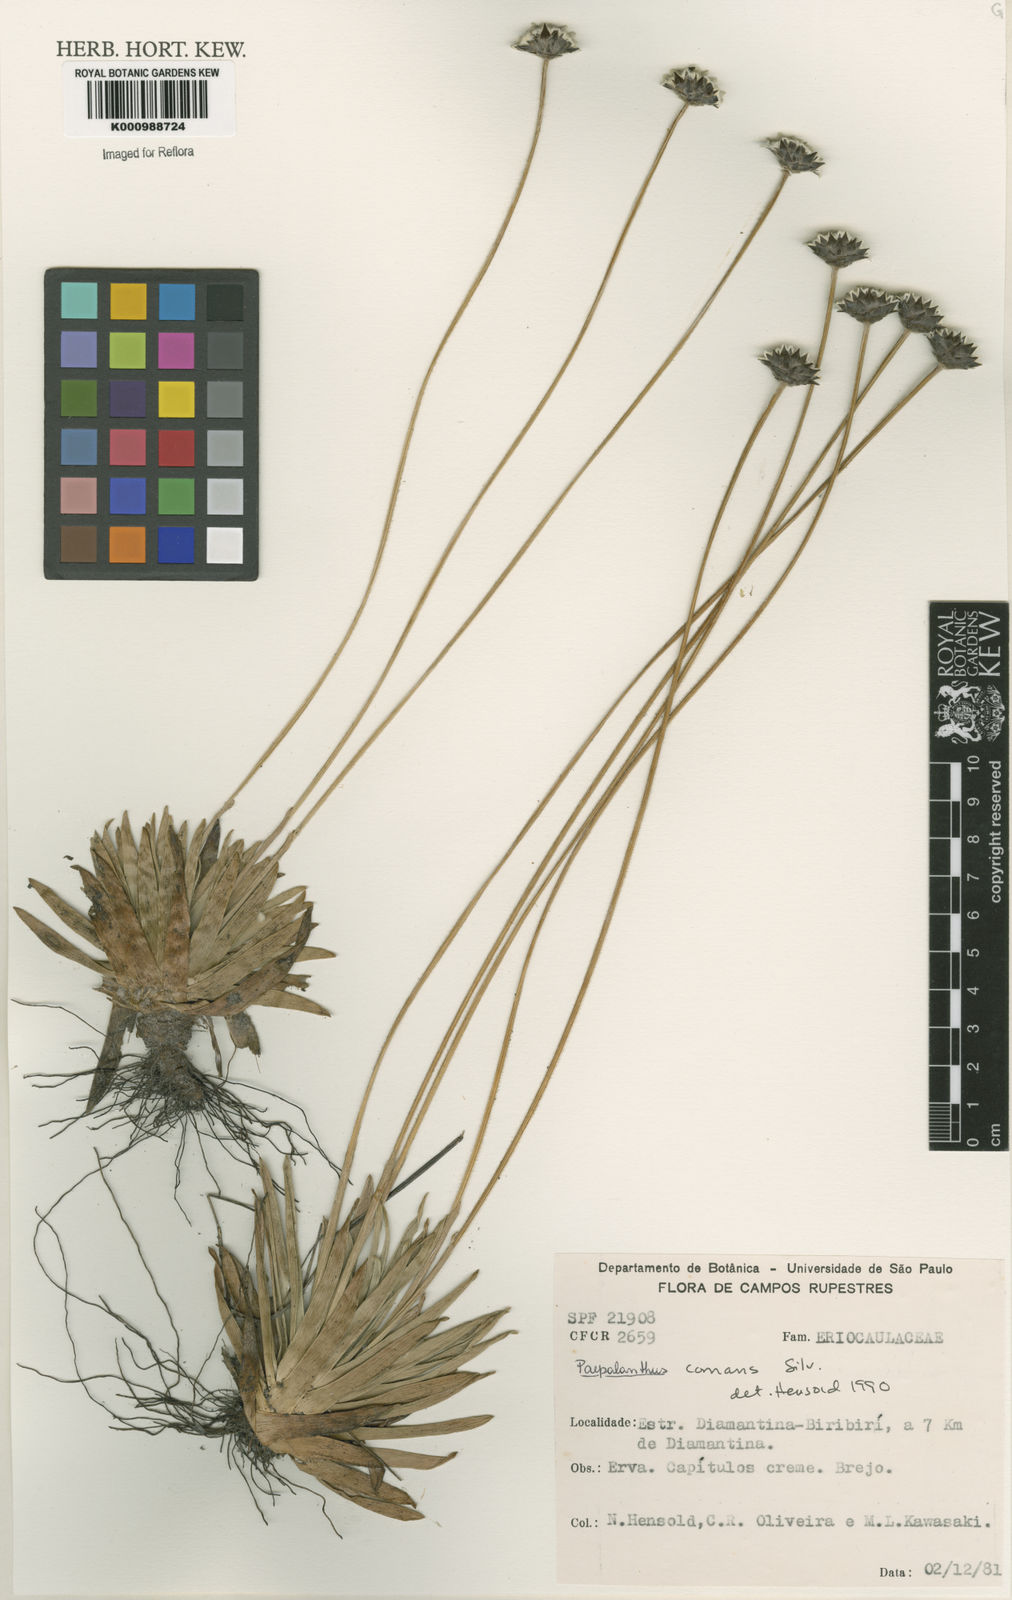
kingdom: Plantae
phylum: Tracheophyta
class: Liliopsida
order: Poales
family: Eriocaulaceae
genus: Paepalanthus
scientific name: Paepalanthus comans
